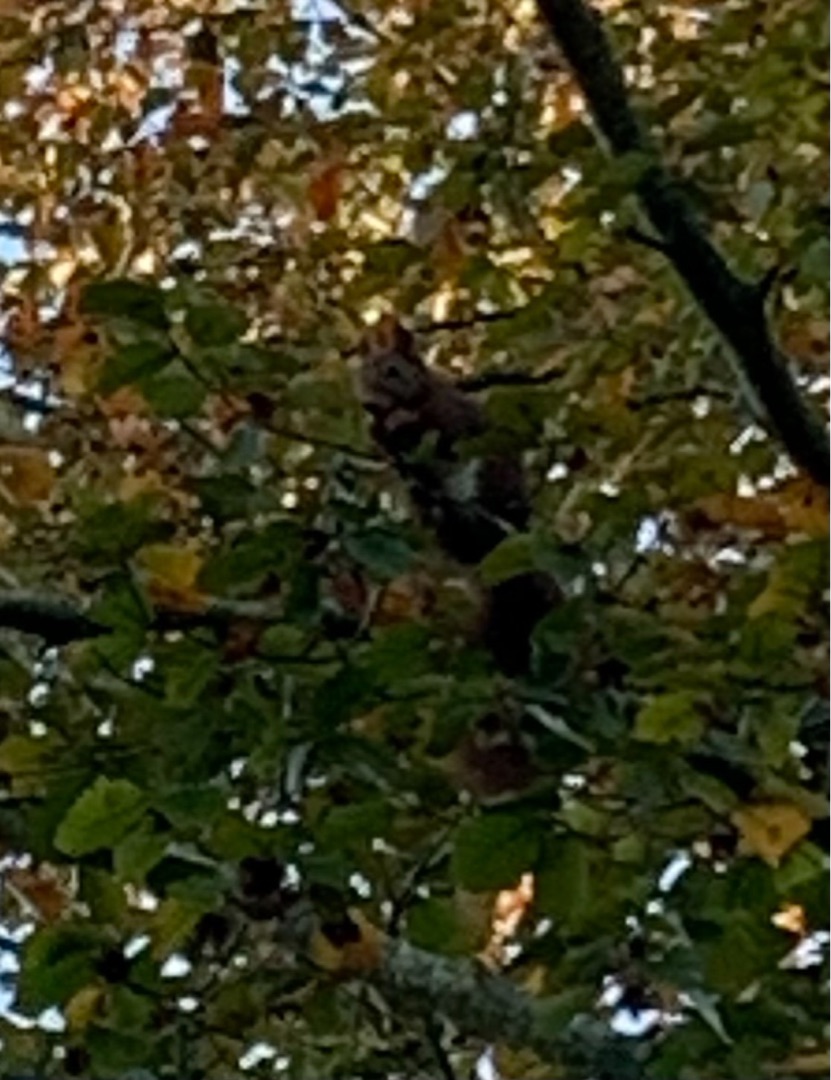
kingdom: Animalia
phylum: Chordata
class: Mammalia
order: Rodentia
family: Sciuridae
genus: Sciurus
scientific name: Sciurus vulgaris
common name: Egern
